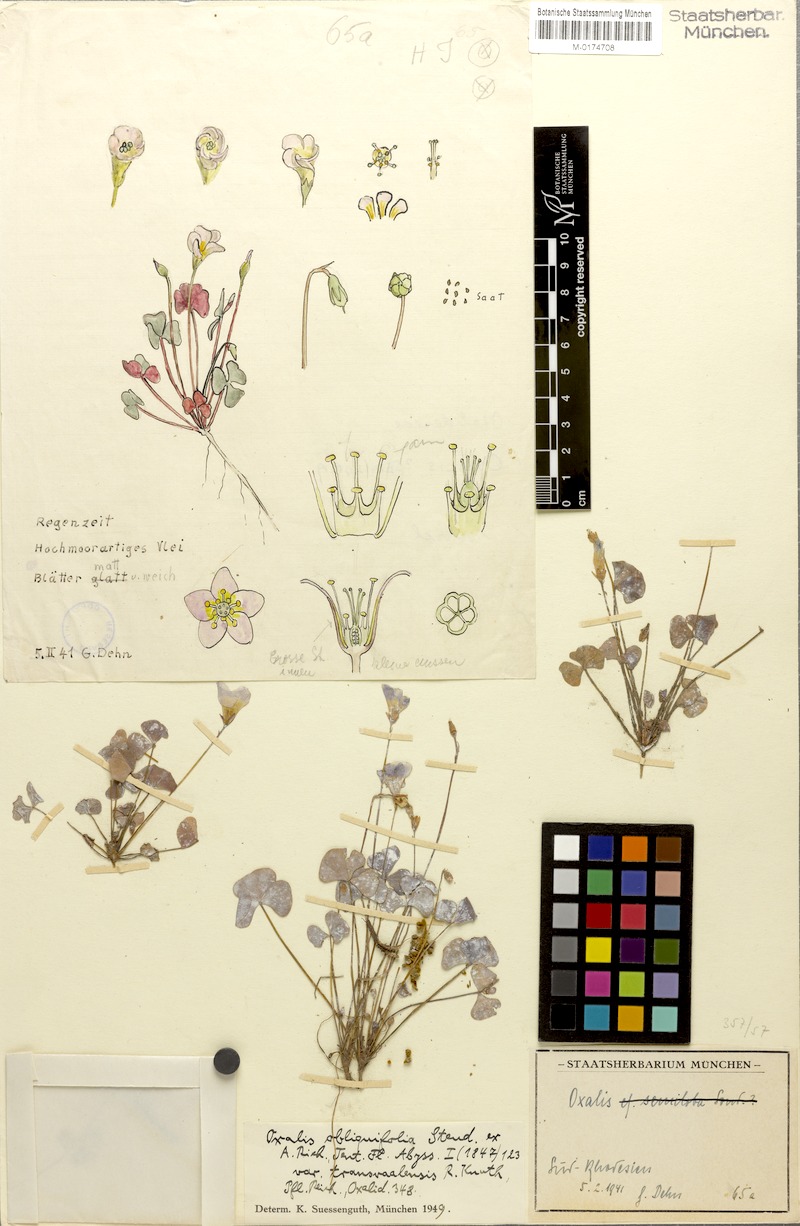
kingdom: Plantae
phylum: Tracheophyta
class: Magnoliopsida
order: Oxalidales
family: Oxalidaceae
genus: Oxalis
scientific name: Oxalis obliquifolia
